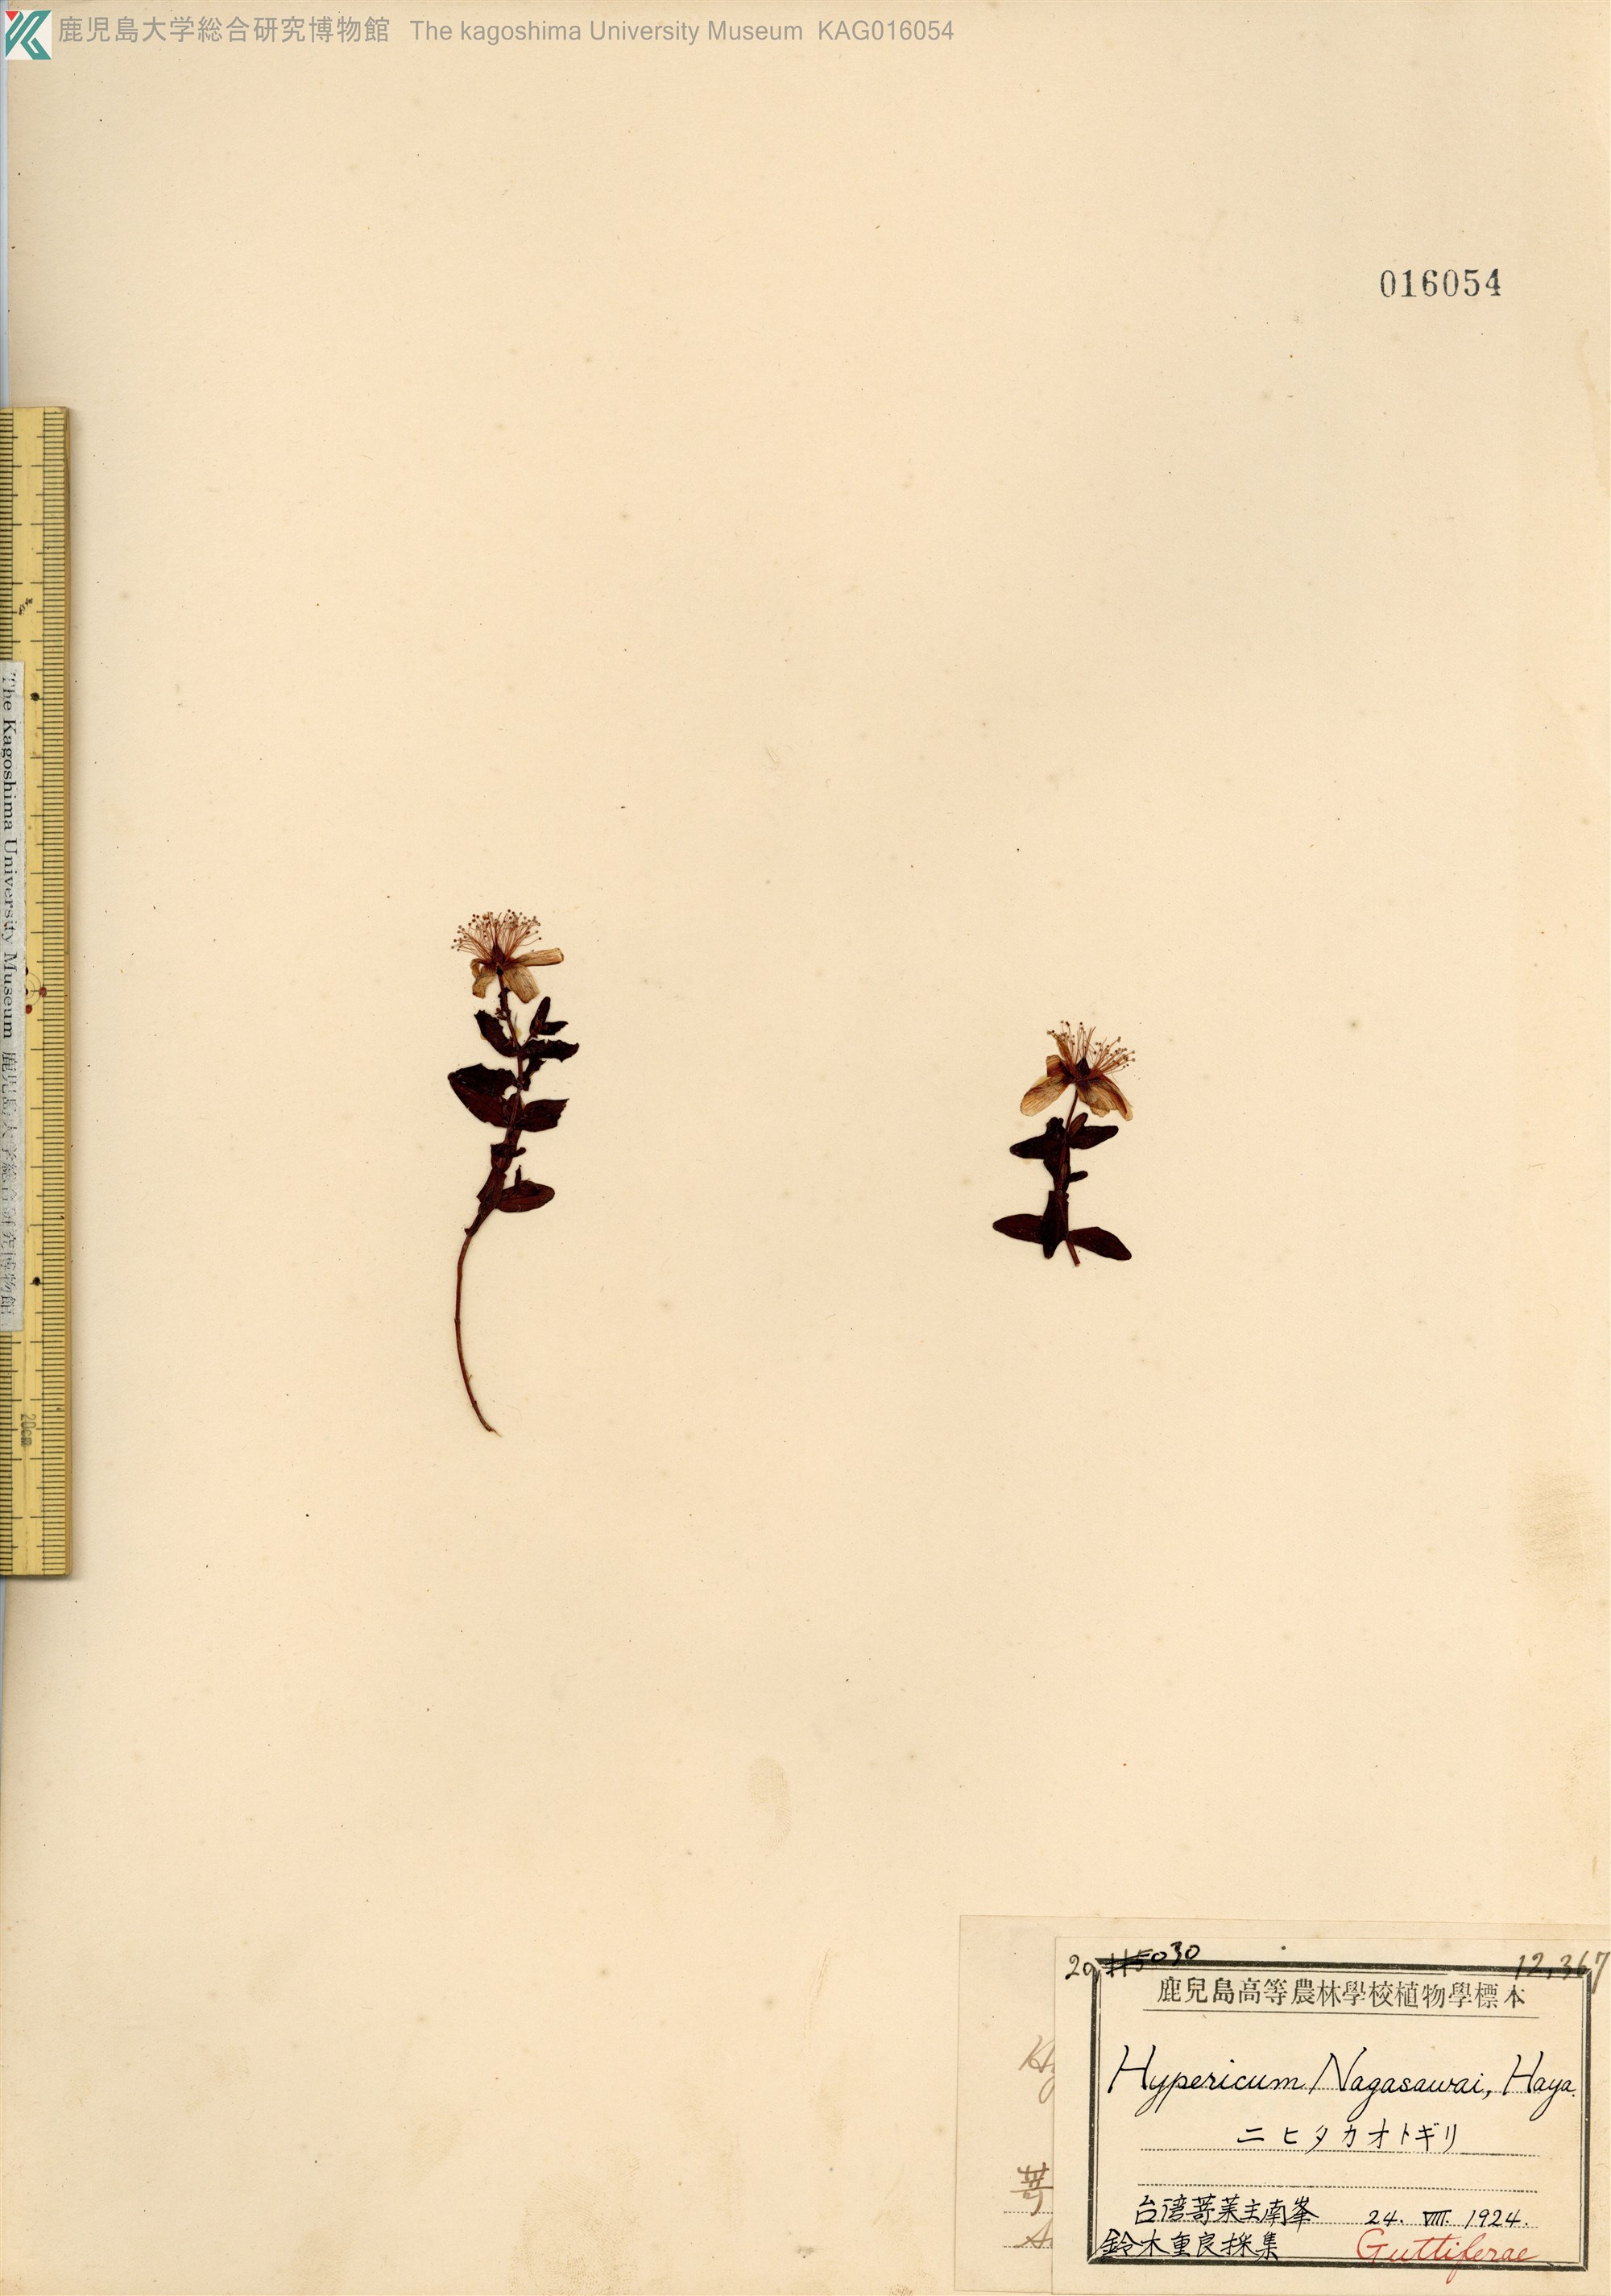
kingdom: Plantae
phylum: Tracheophyta
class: Magnoliopsida
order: Malpighiales
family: Hypericaceae
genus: Hypericum
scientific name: Hypericum nagasawae
